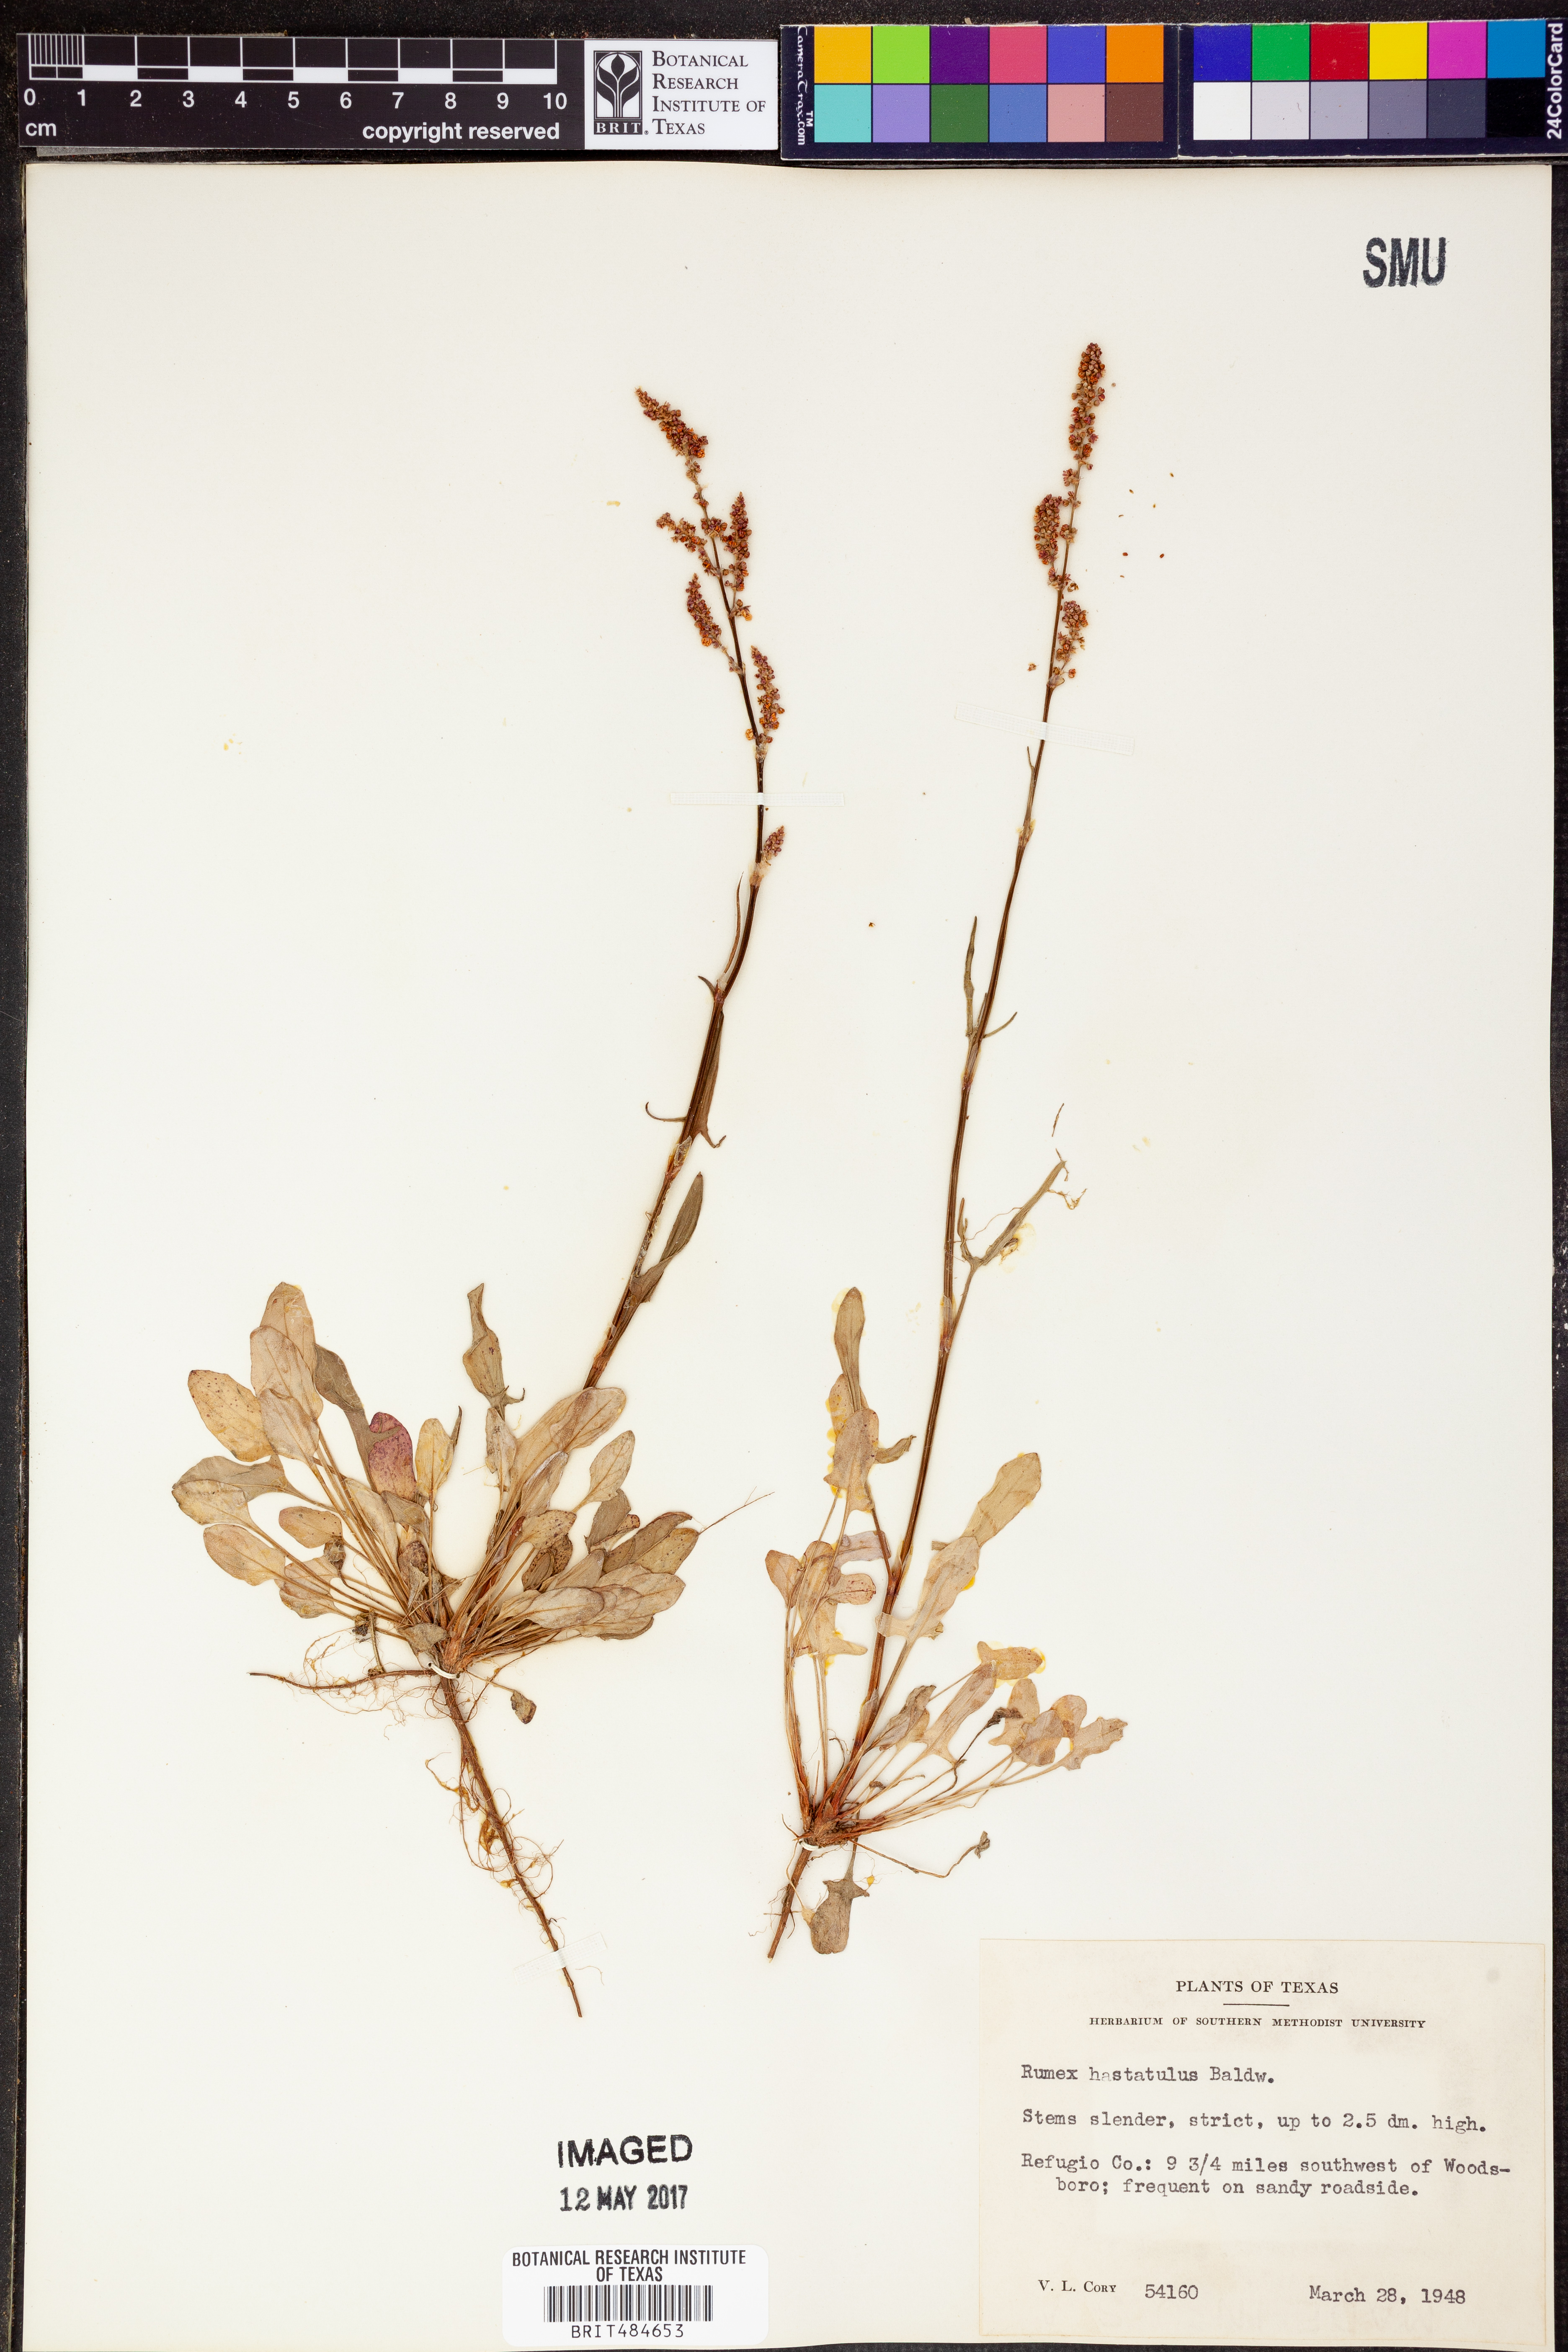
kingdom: Plantae
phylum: Tracheophyta
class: Magnoliopsida
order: Caryophyllales
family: Polygonaceae
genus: Rumex
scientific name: Rumex hastatulus
